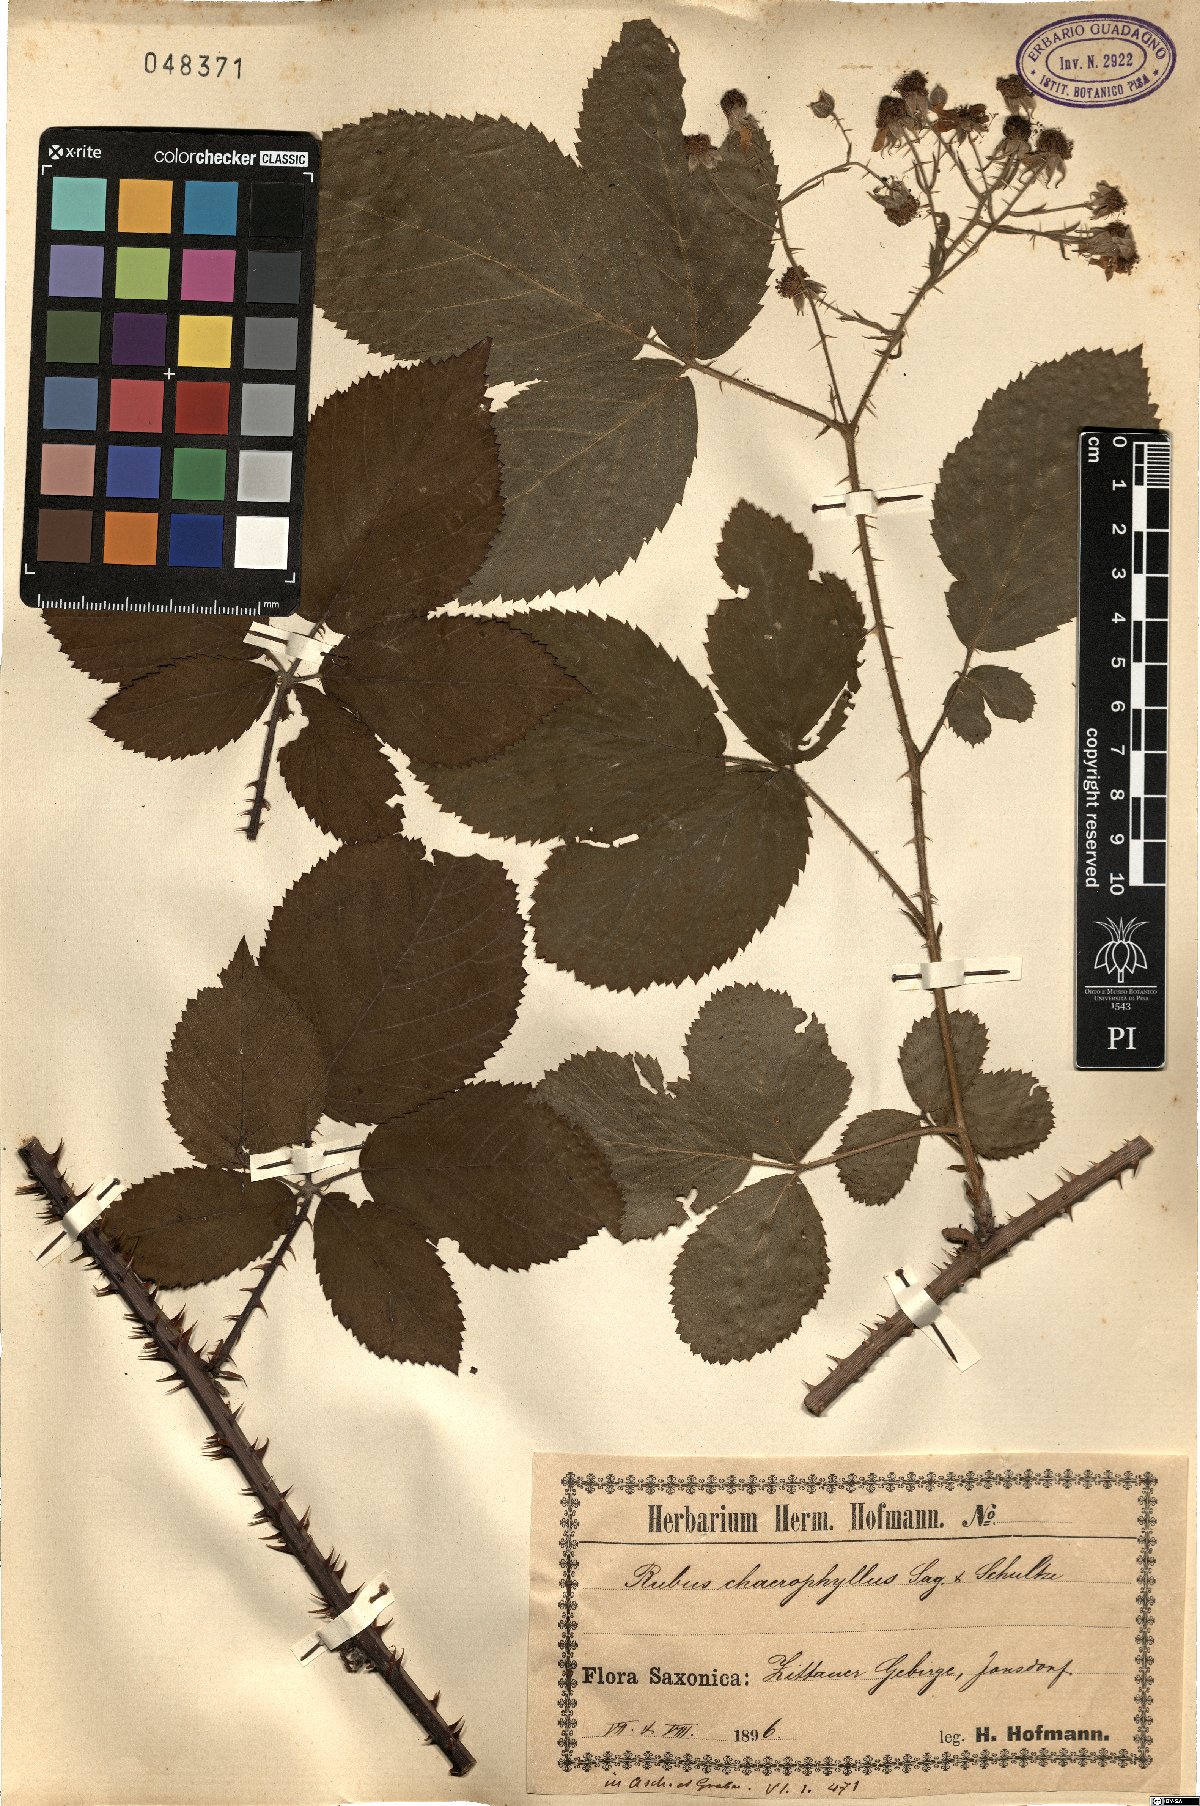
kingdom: Plantae
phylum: Tracheophyta
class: Magnoliopsida
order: Rosales
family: Rosaceae
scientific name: Rosaceae
